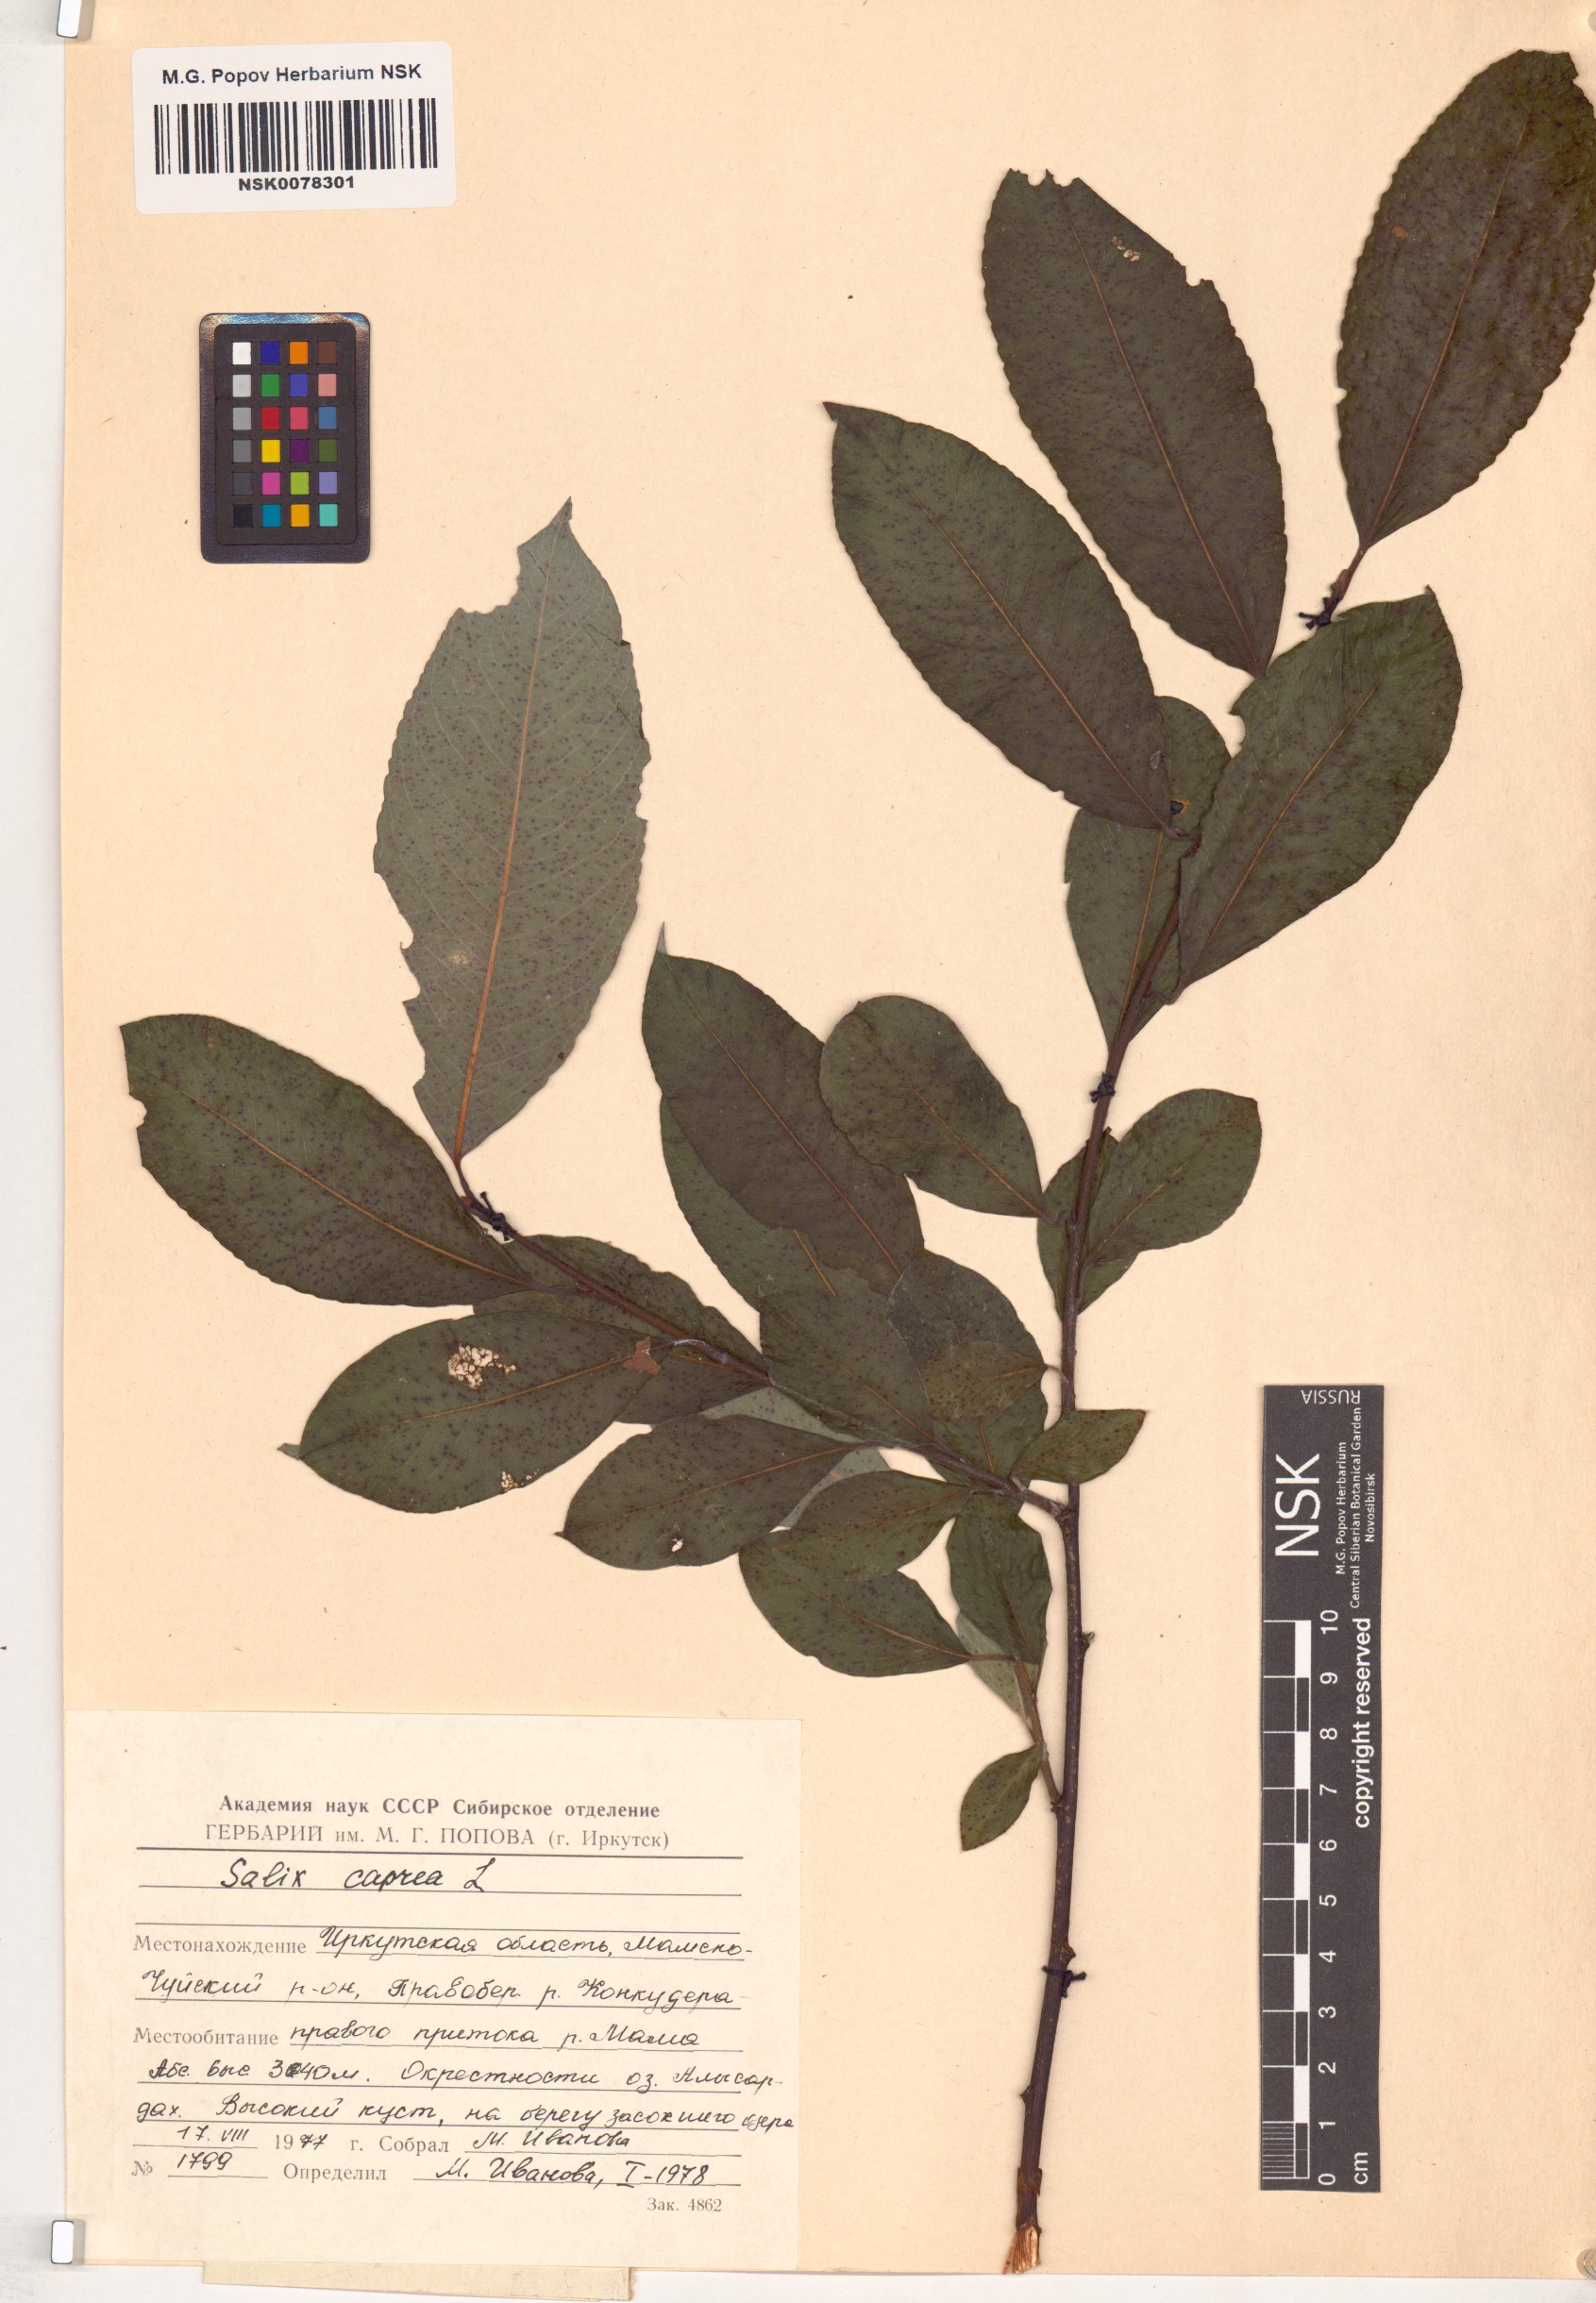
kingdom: Plantae
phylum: Tracheophyta
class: Magnoliopsida
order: Malpighiales
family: Salicaceae
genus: Salix
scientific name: Salix caprea
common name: Goat willow
